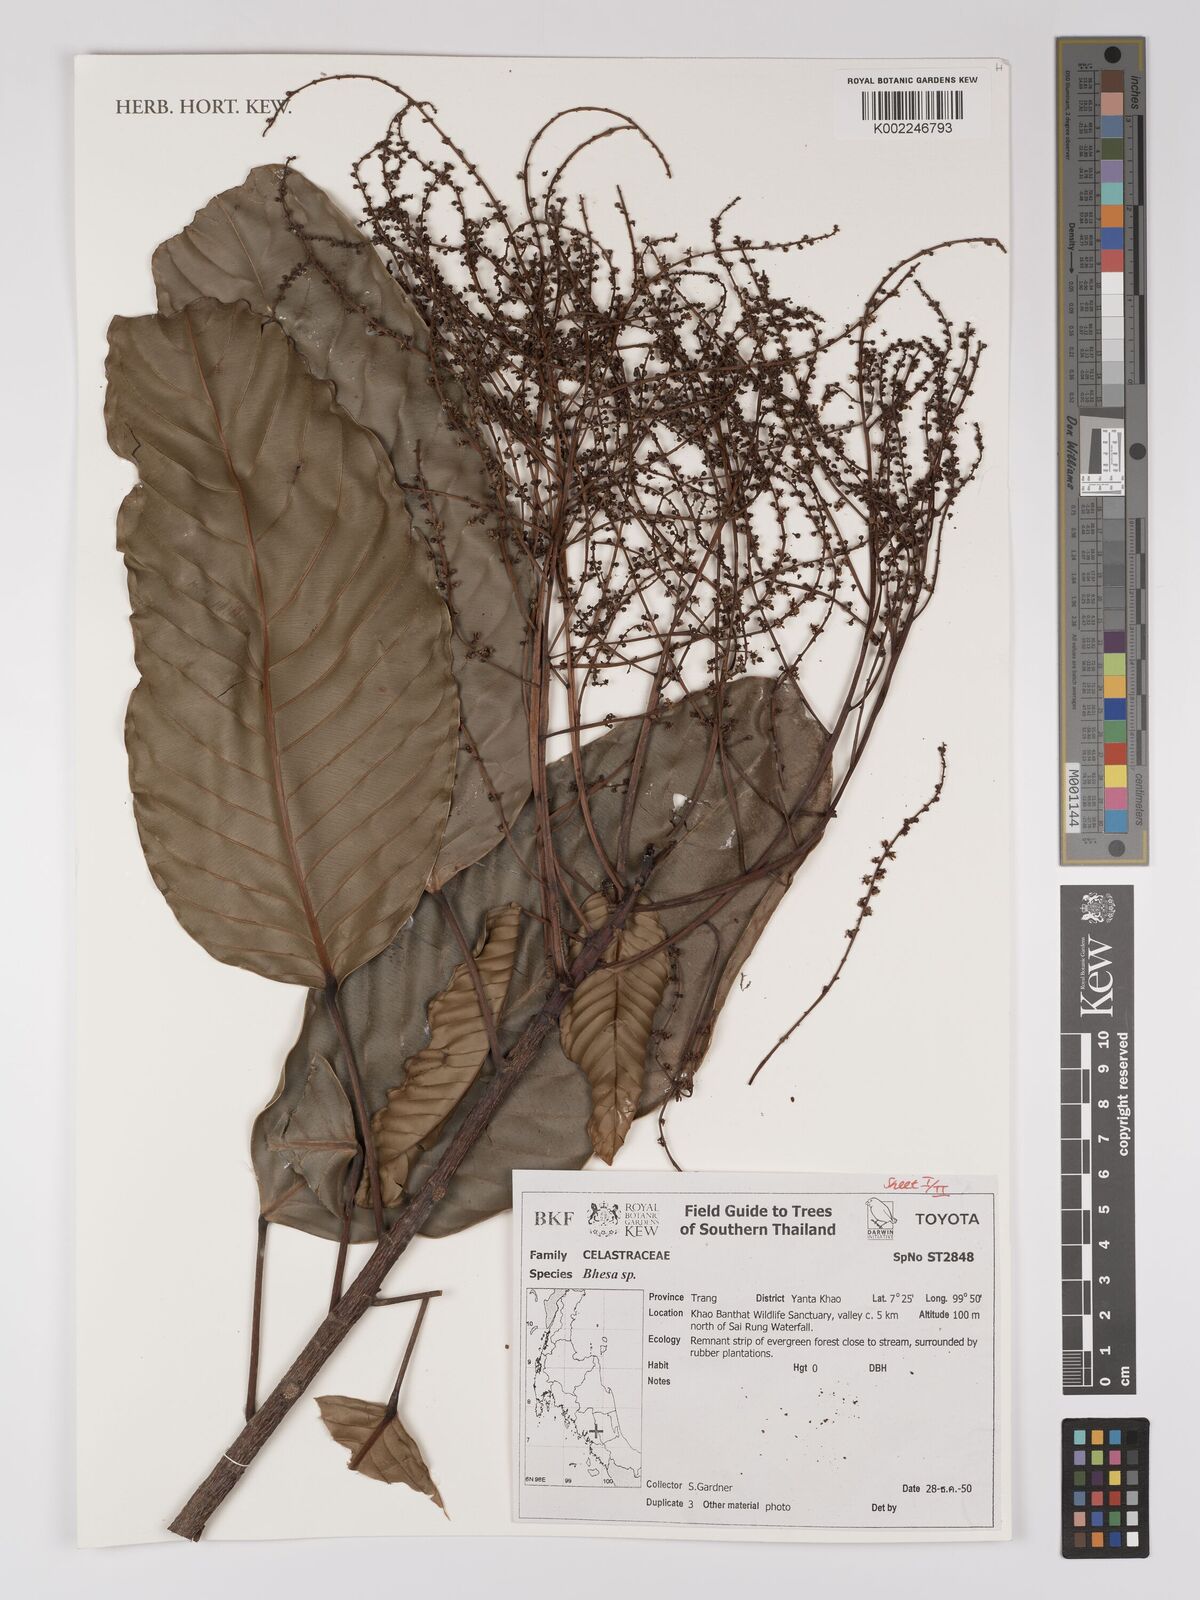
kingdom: Plantae
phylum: Tracheophyta
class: Magnoliopsida
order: Malpighiales
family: Centroplacaceae
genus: Bhesa
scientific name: Bhesa
